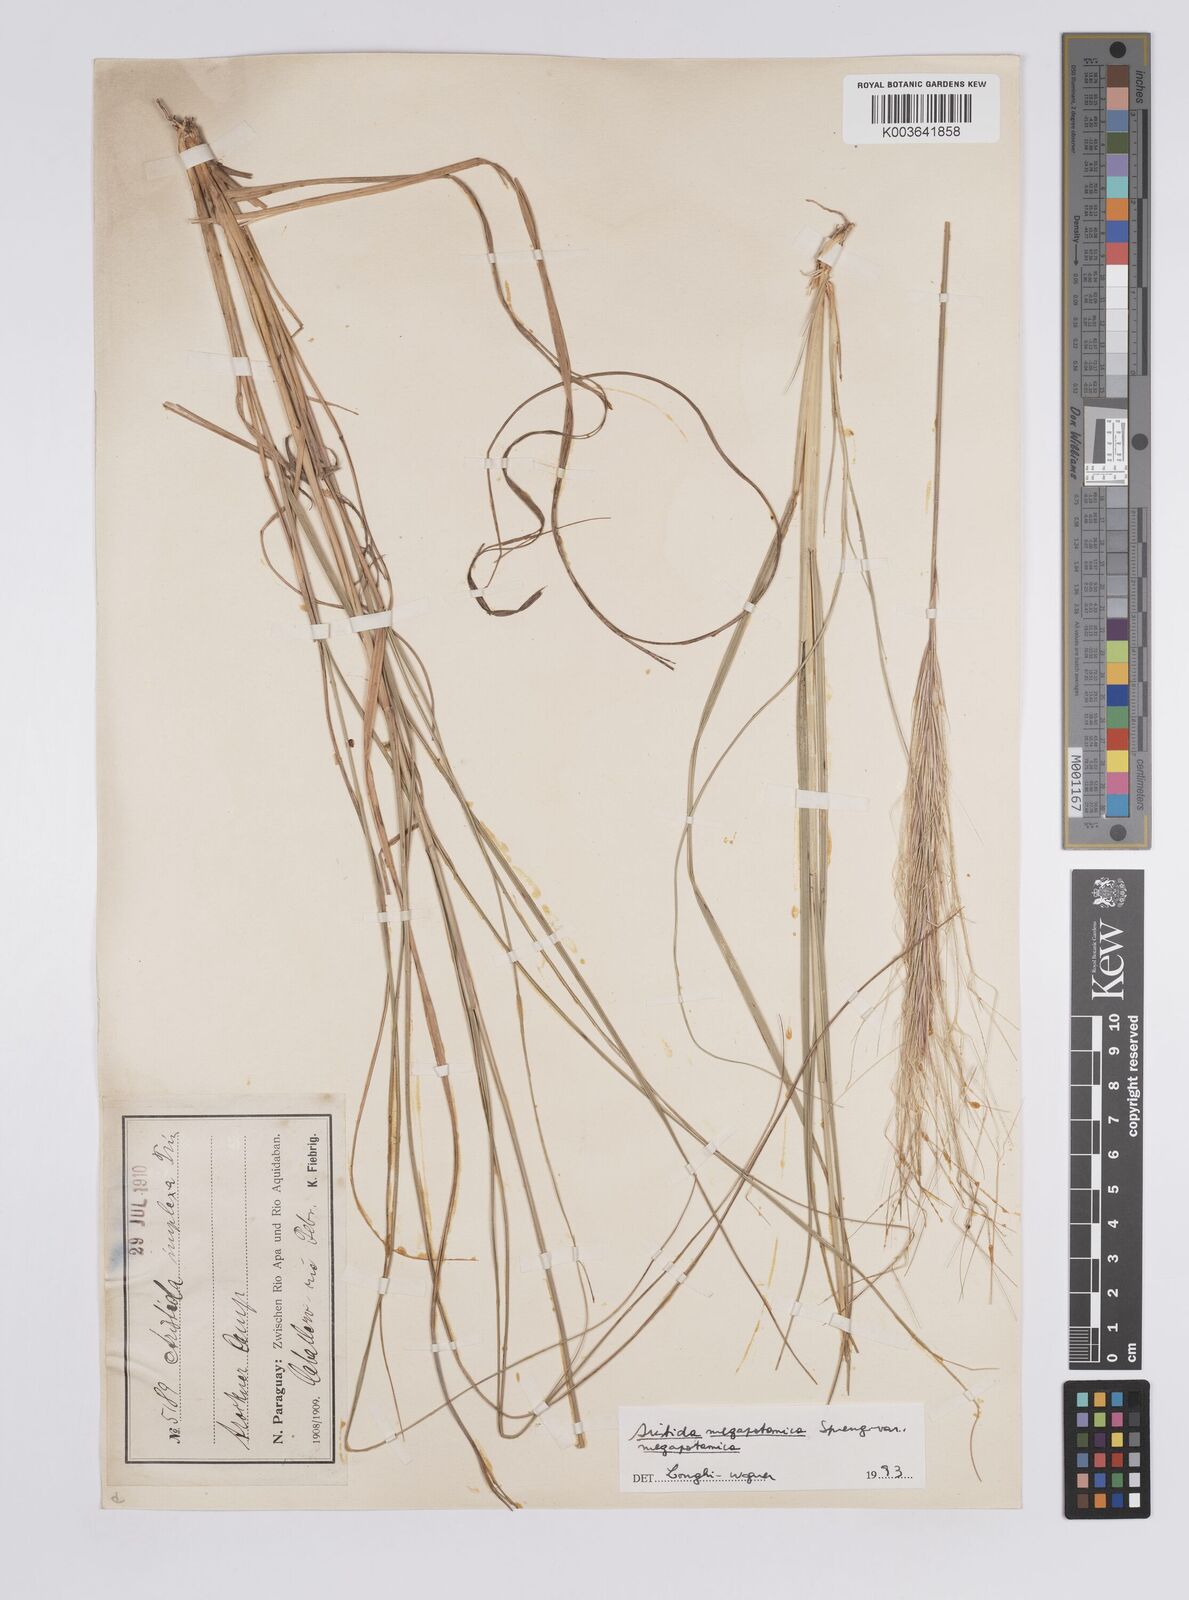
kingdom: Plantae
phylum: Tracheophyta
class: Liliopsida
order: Poales
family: Poaceae
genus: Aristida
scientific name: Aristida megapotamica
